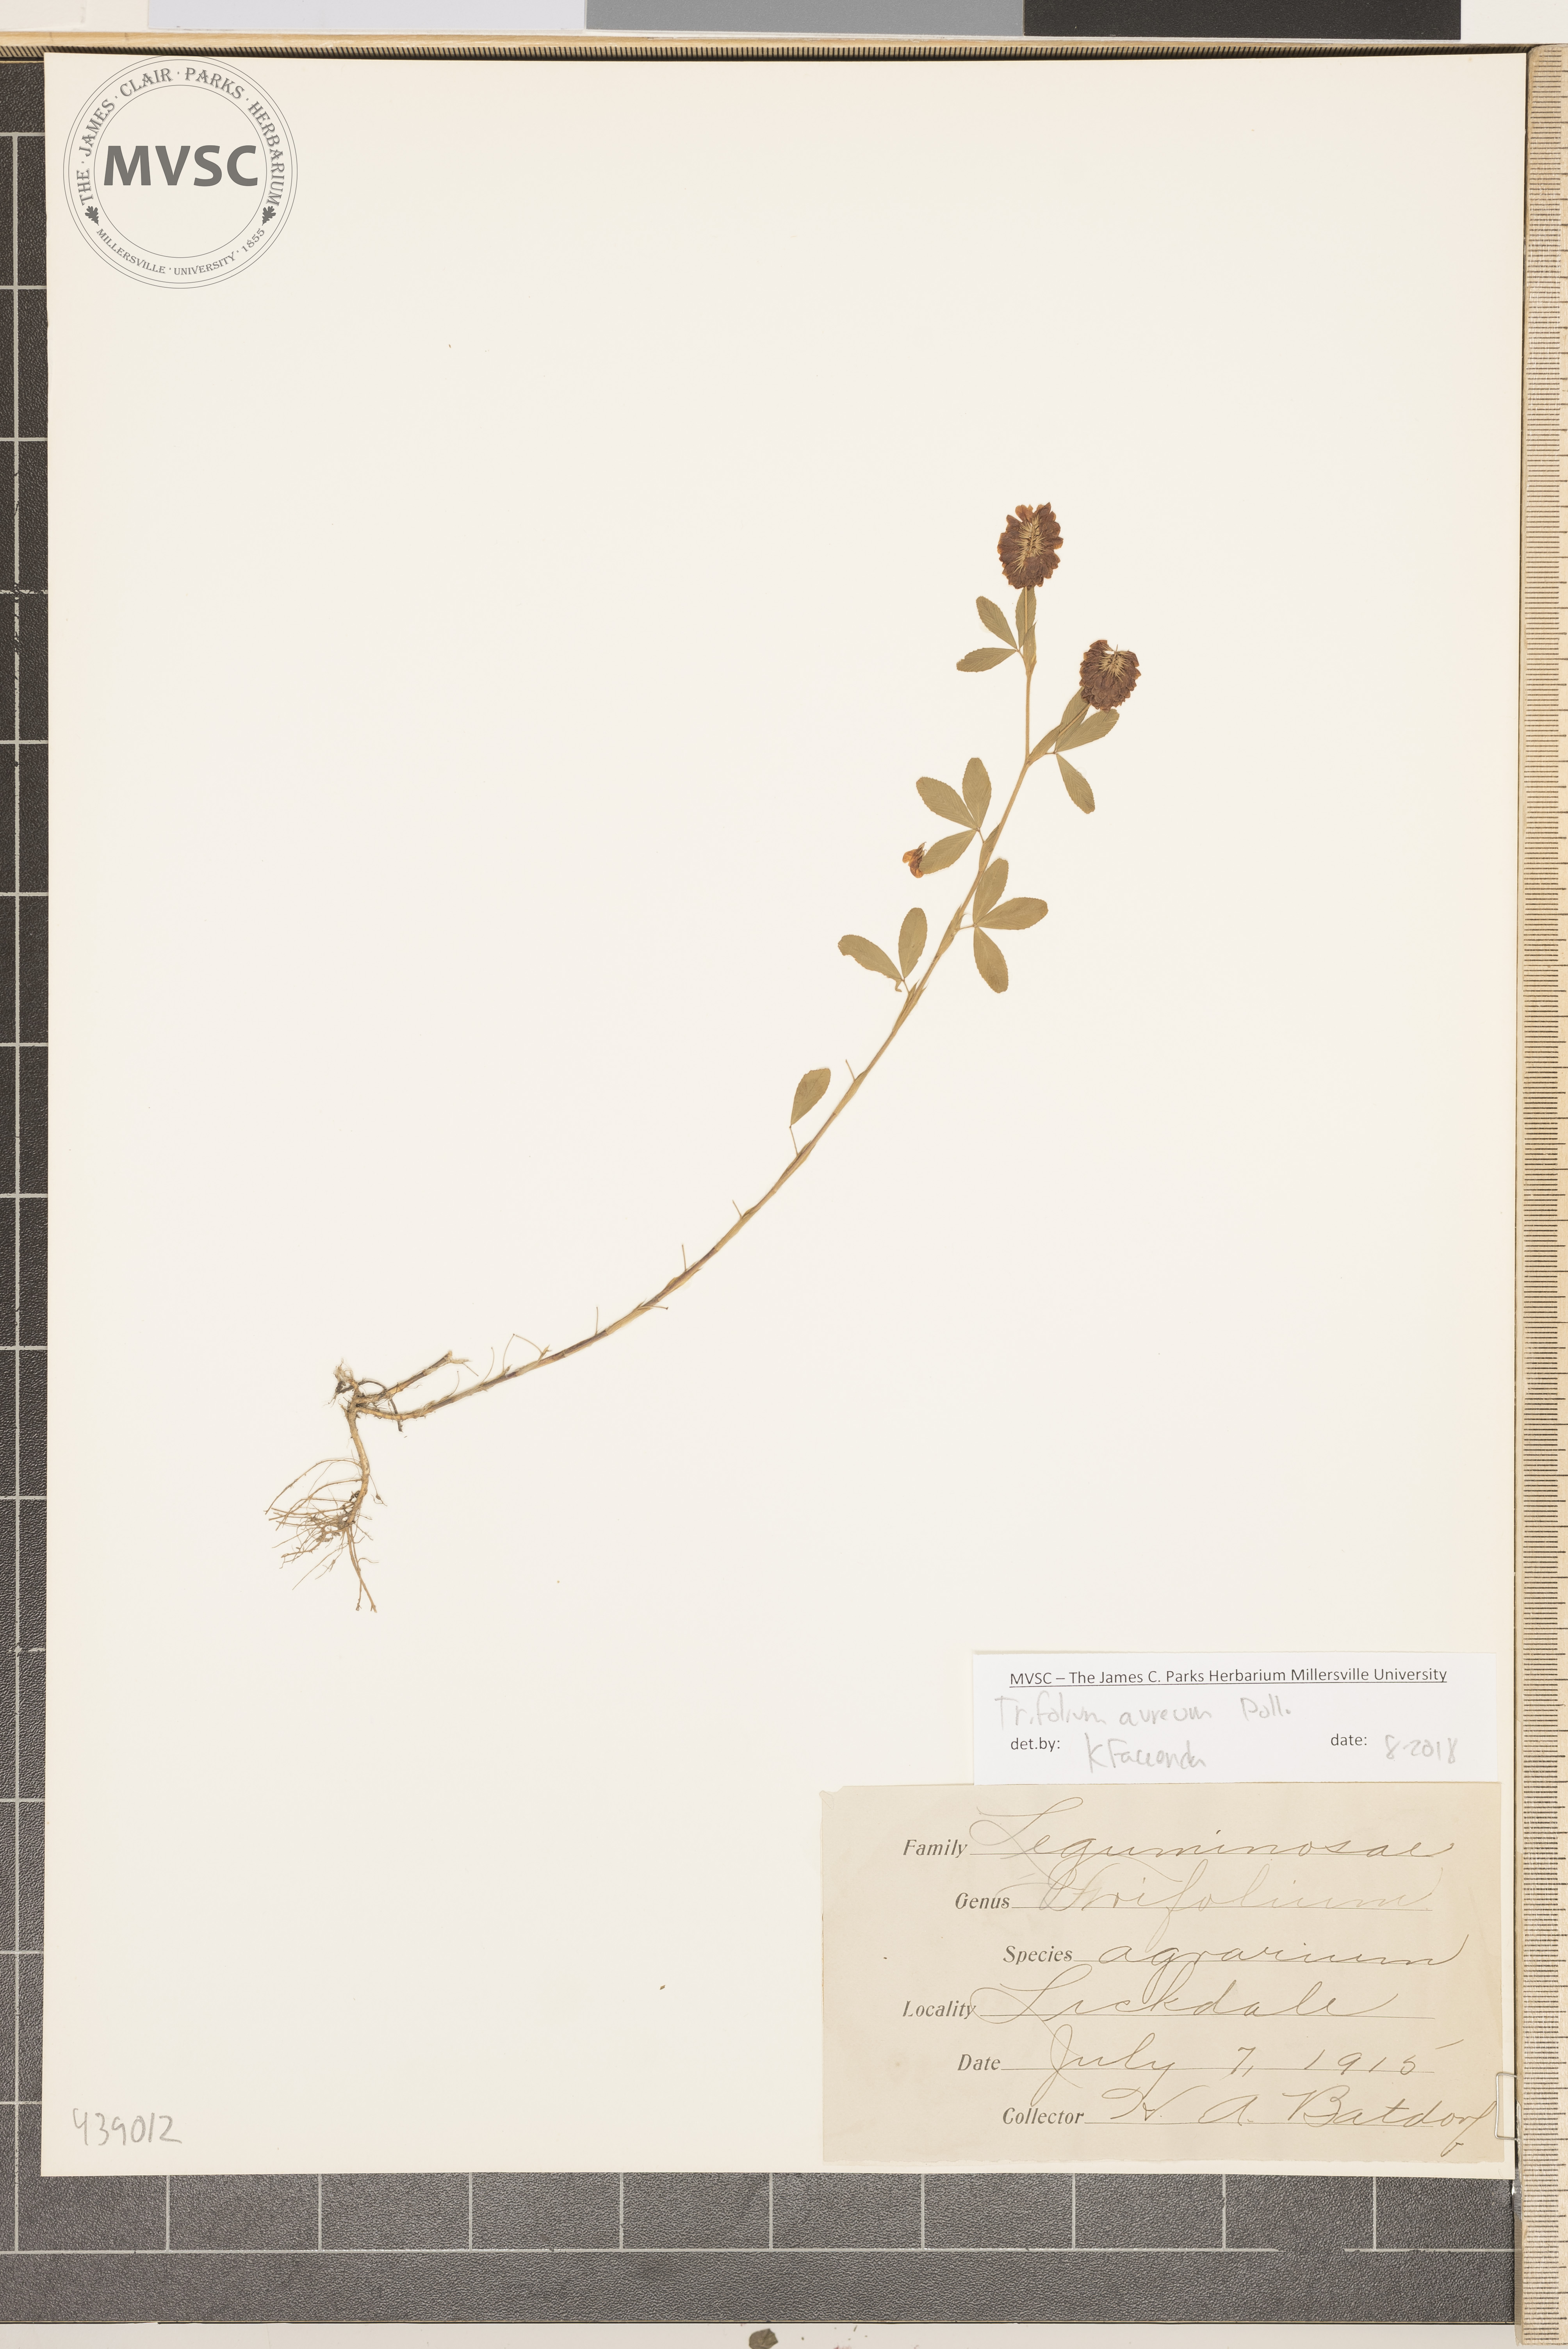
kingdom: Plantae
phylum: Tracheophyta
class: Magnoliopsida
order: Fabales
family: Fabaceae
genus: Trifolium
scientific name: Trifolium aureum
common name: Golden clover
